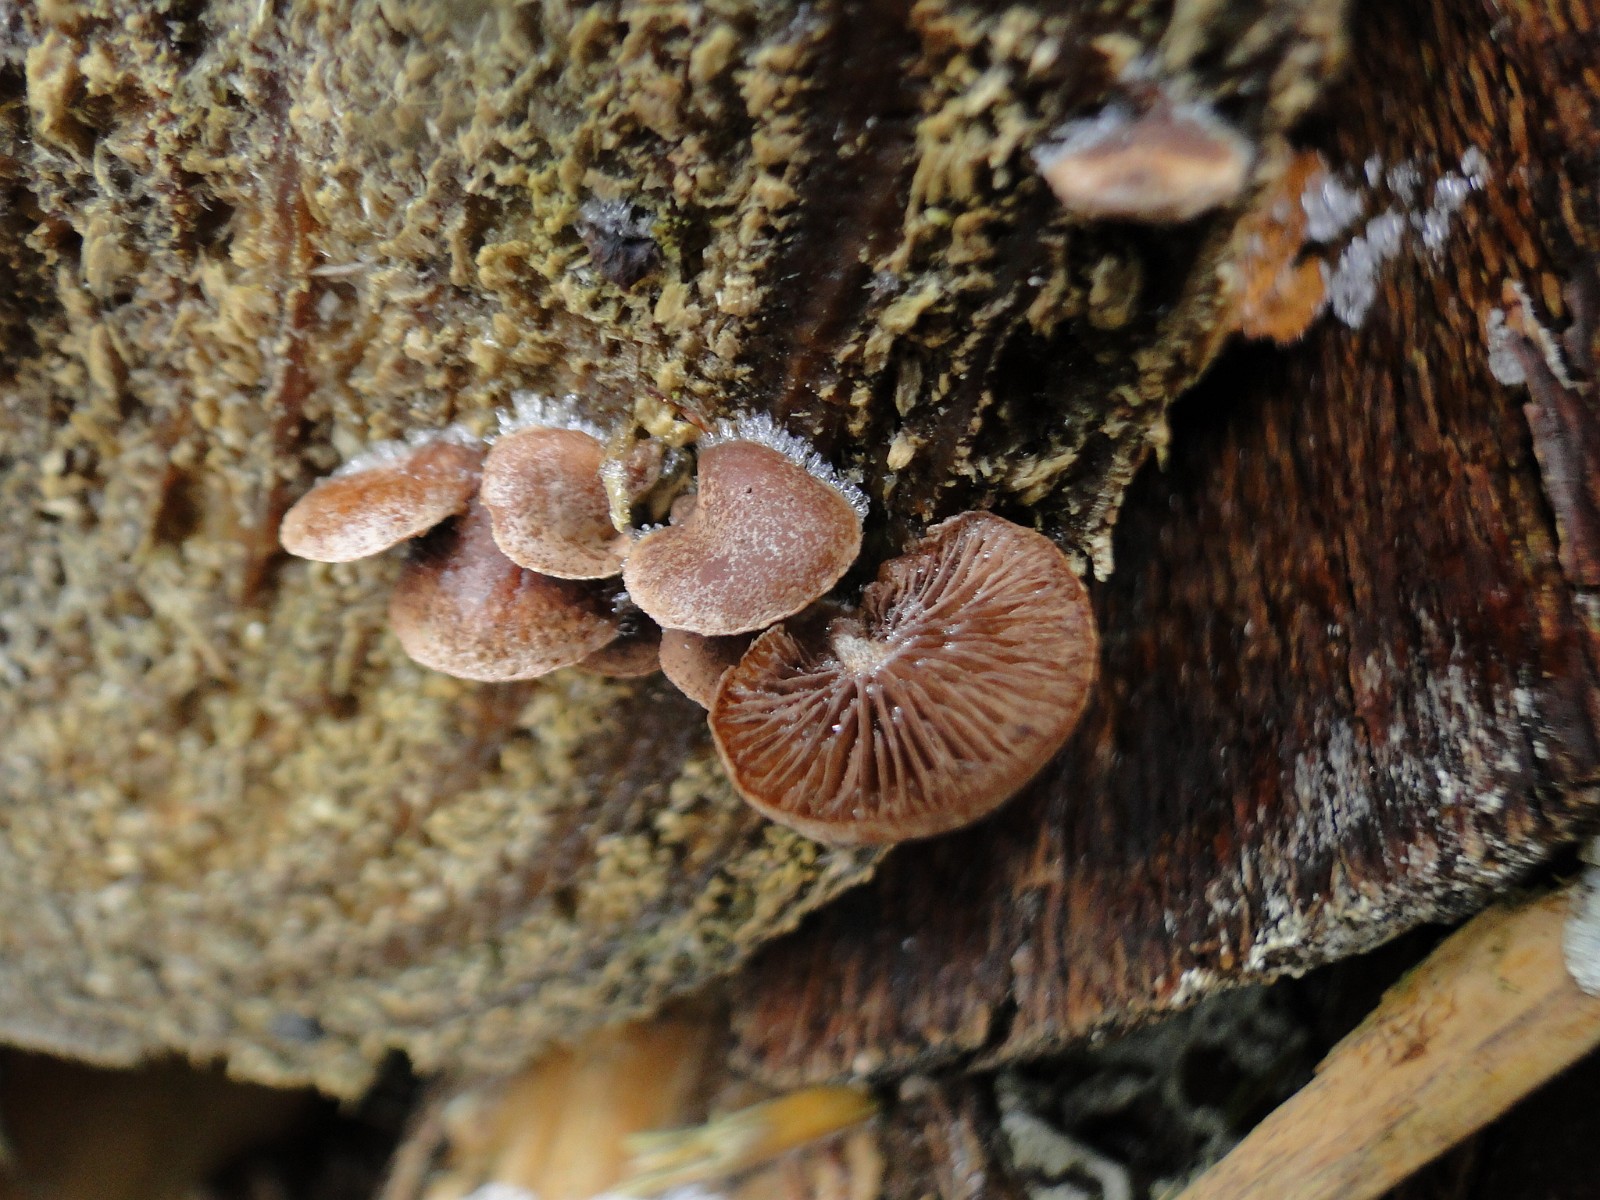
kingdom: Fungi
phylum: Basidiomycota
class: Agaricomycetes
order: Agaricales
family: Strophariaceae
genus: Deconica
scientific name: Deconica horizontalis
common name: ved-stråhat
